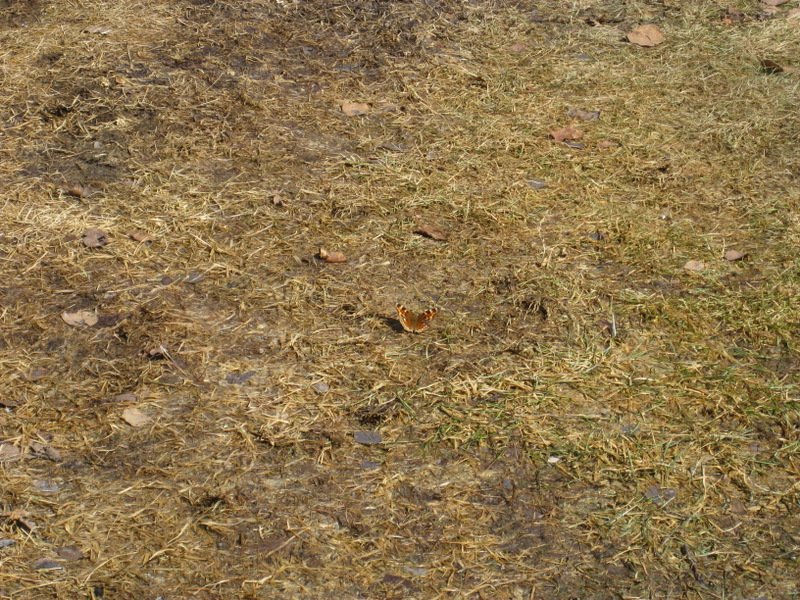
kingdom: Animalia
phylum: Arthropoda
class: Insecta
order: Lepidoptera
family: Nymphalidae
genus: Polygonia
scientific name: Polygonia vaualbum
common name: Compton Tortoiseshell
